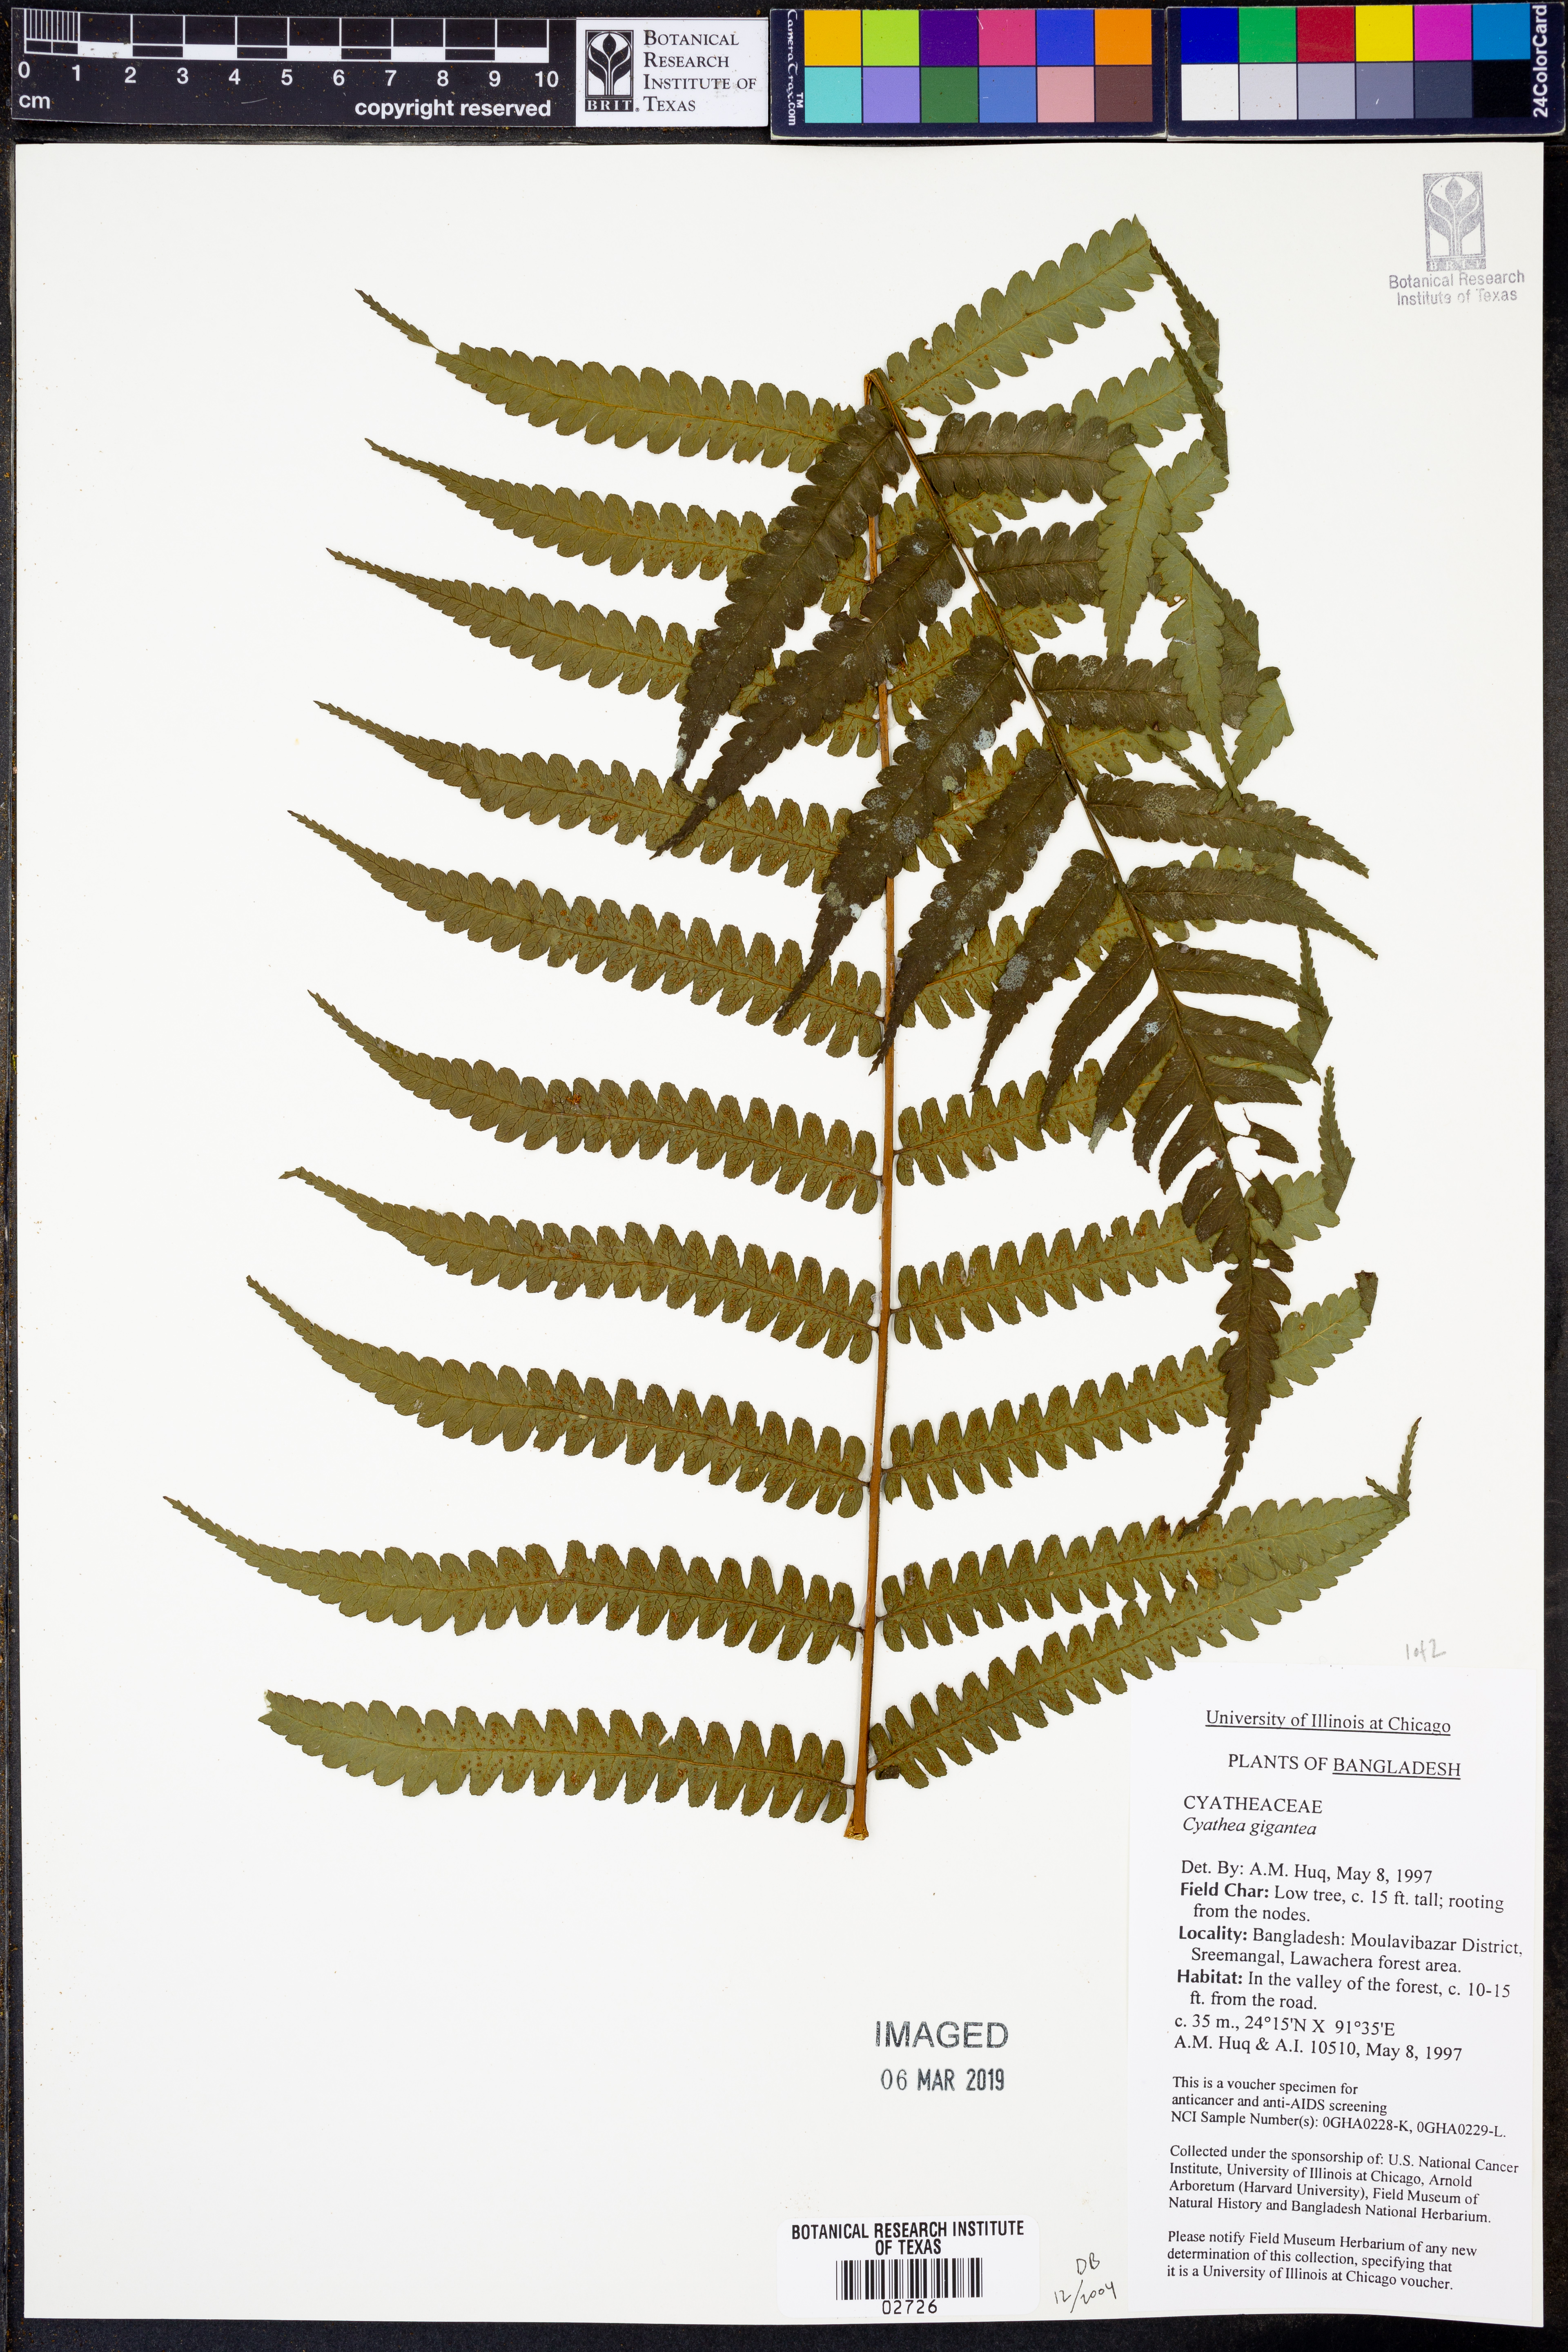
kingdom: Plantae
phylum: Tracheophyta
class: Polypodiopsida
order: Cyatheales
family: Cyatheaceae
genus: Gymnosphaera
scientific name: Gymnosphaera gigantea
